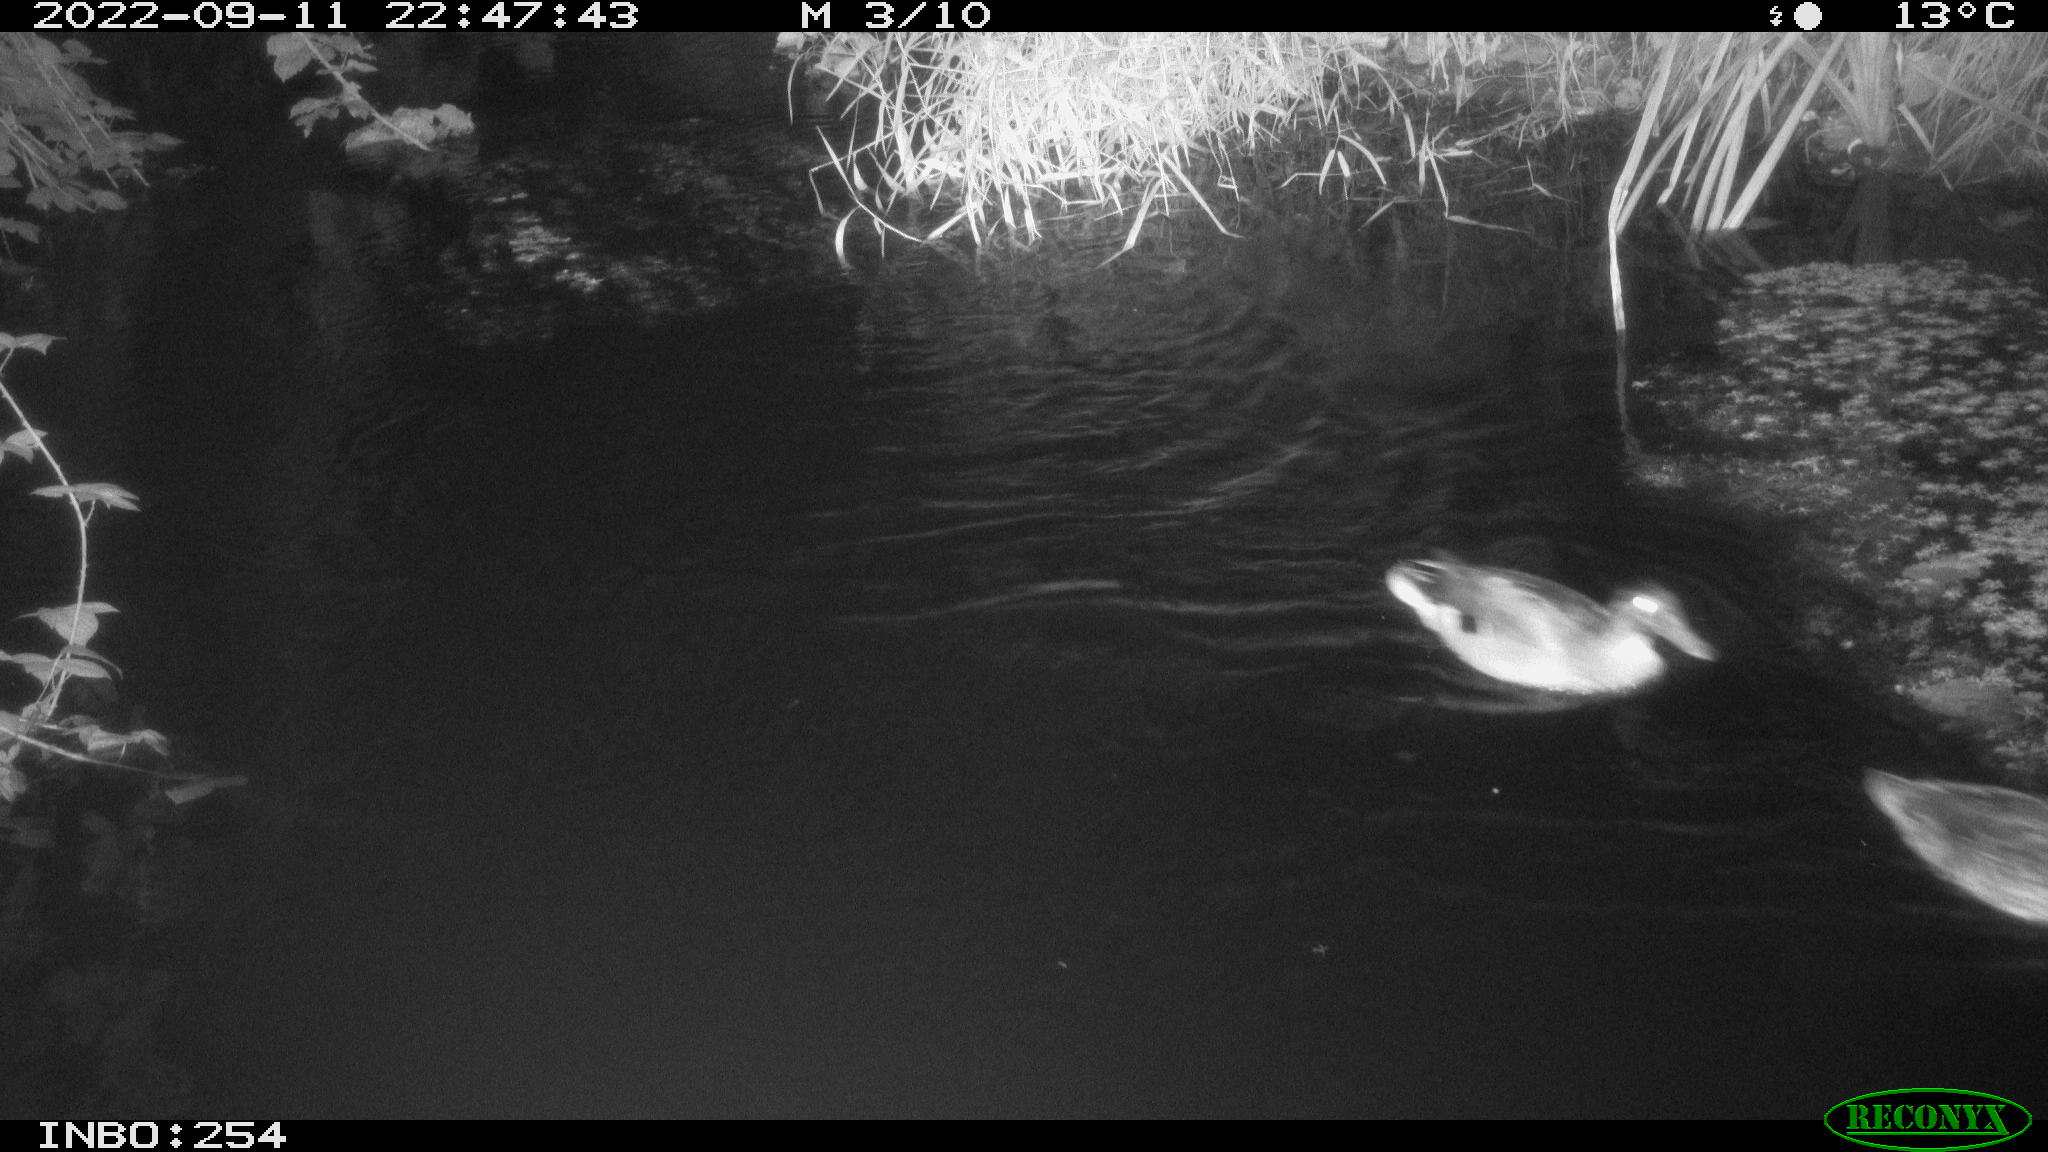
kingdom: Animalia
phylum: Chordata
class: Aves
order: Anseriformes
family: Anatidae
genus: Anas
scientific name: Anas
